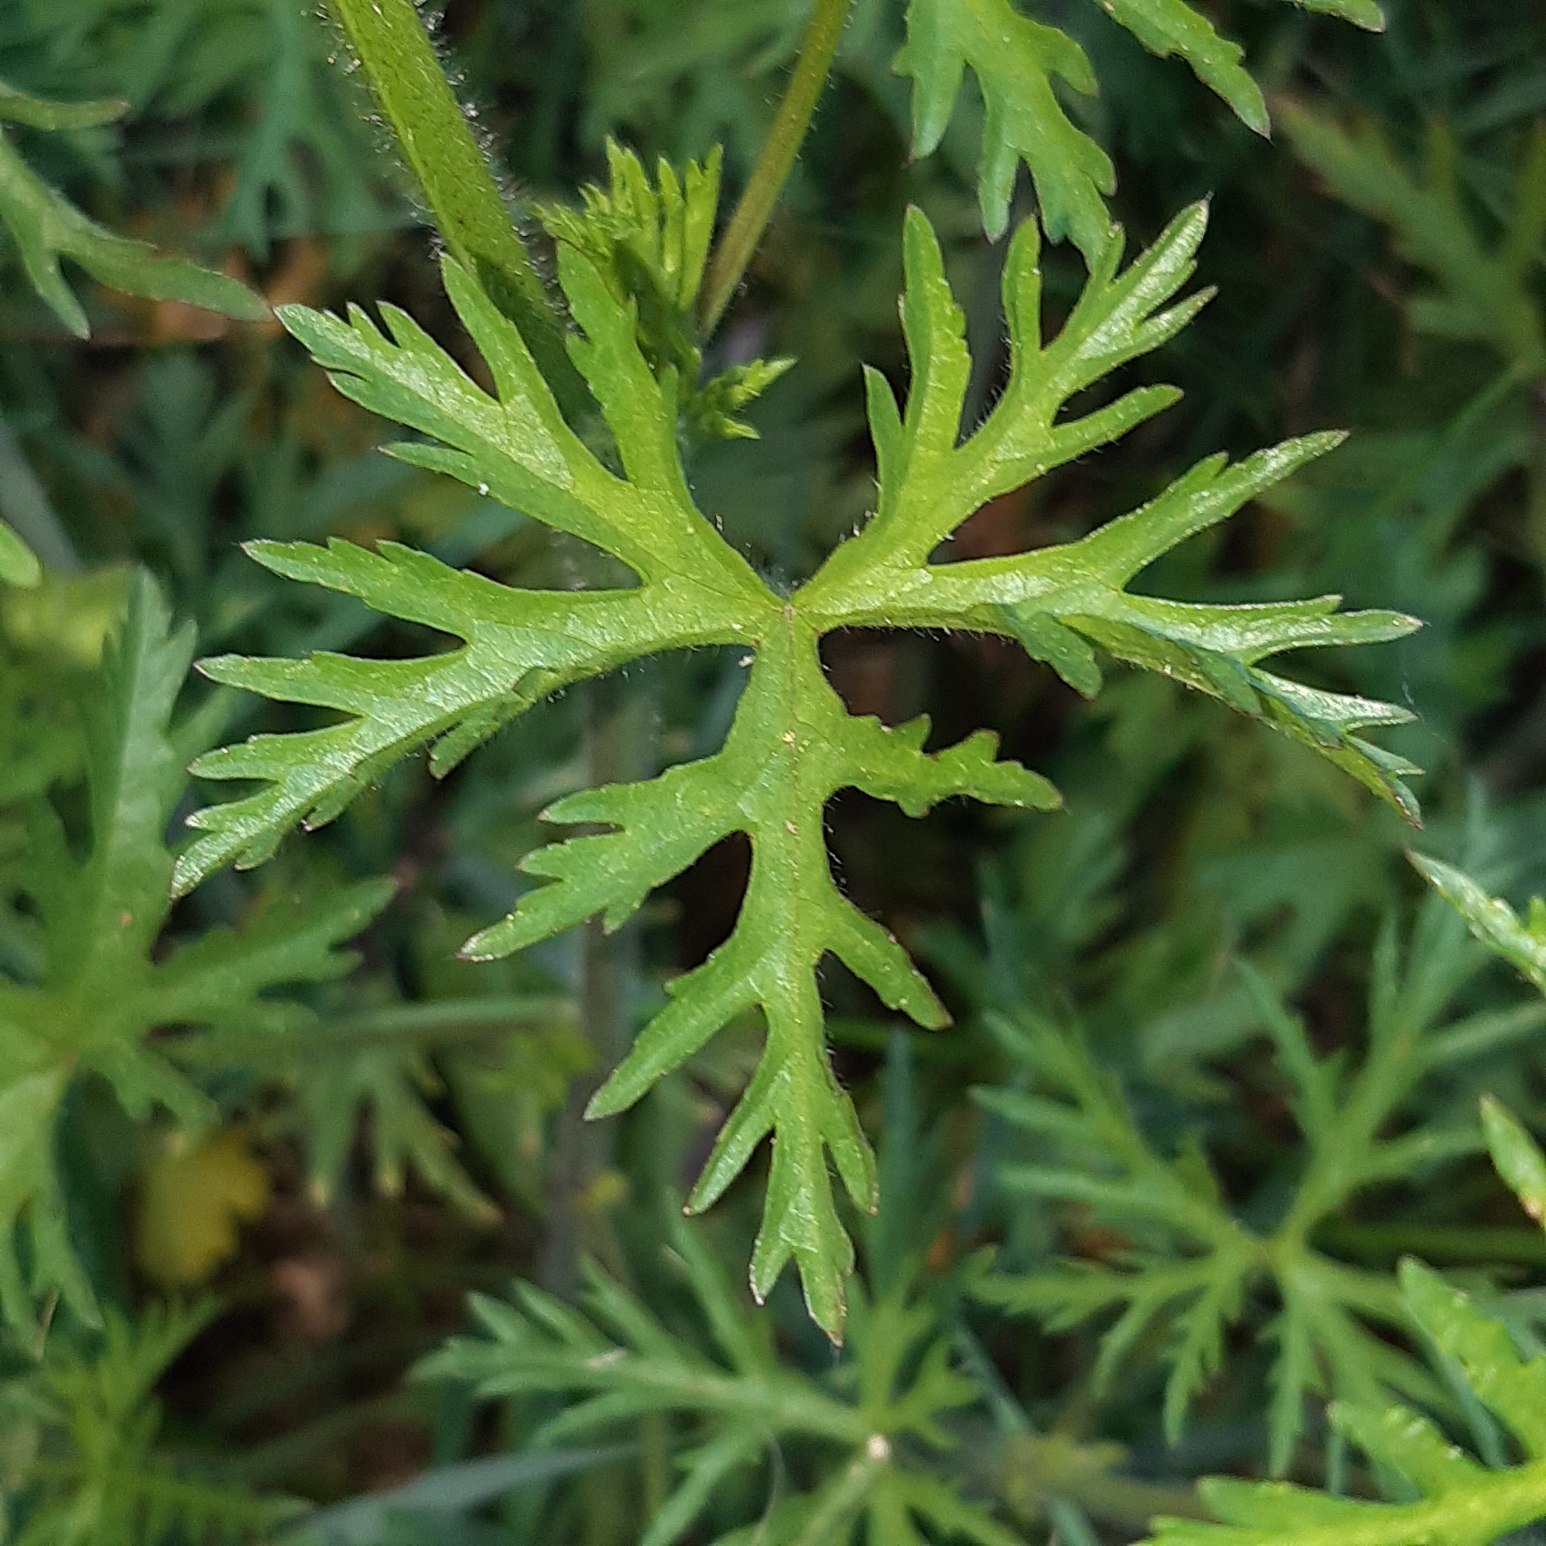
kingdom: Plantae
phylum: Tracheophyta
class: Magnoliopsida
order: Malvales
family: Malvaceae
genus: Malva
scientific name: Malva moschata
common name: Moskus-katost
